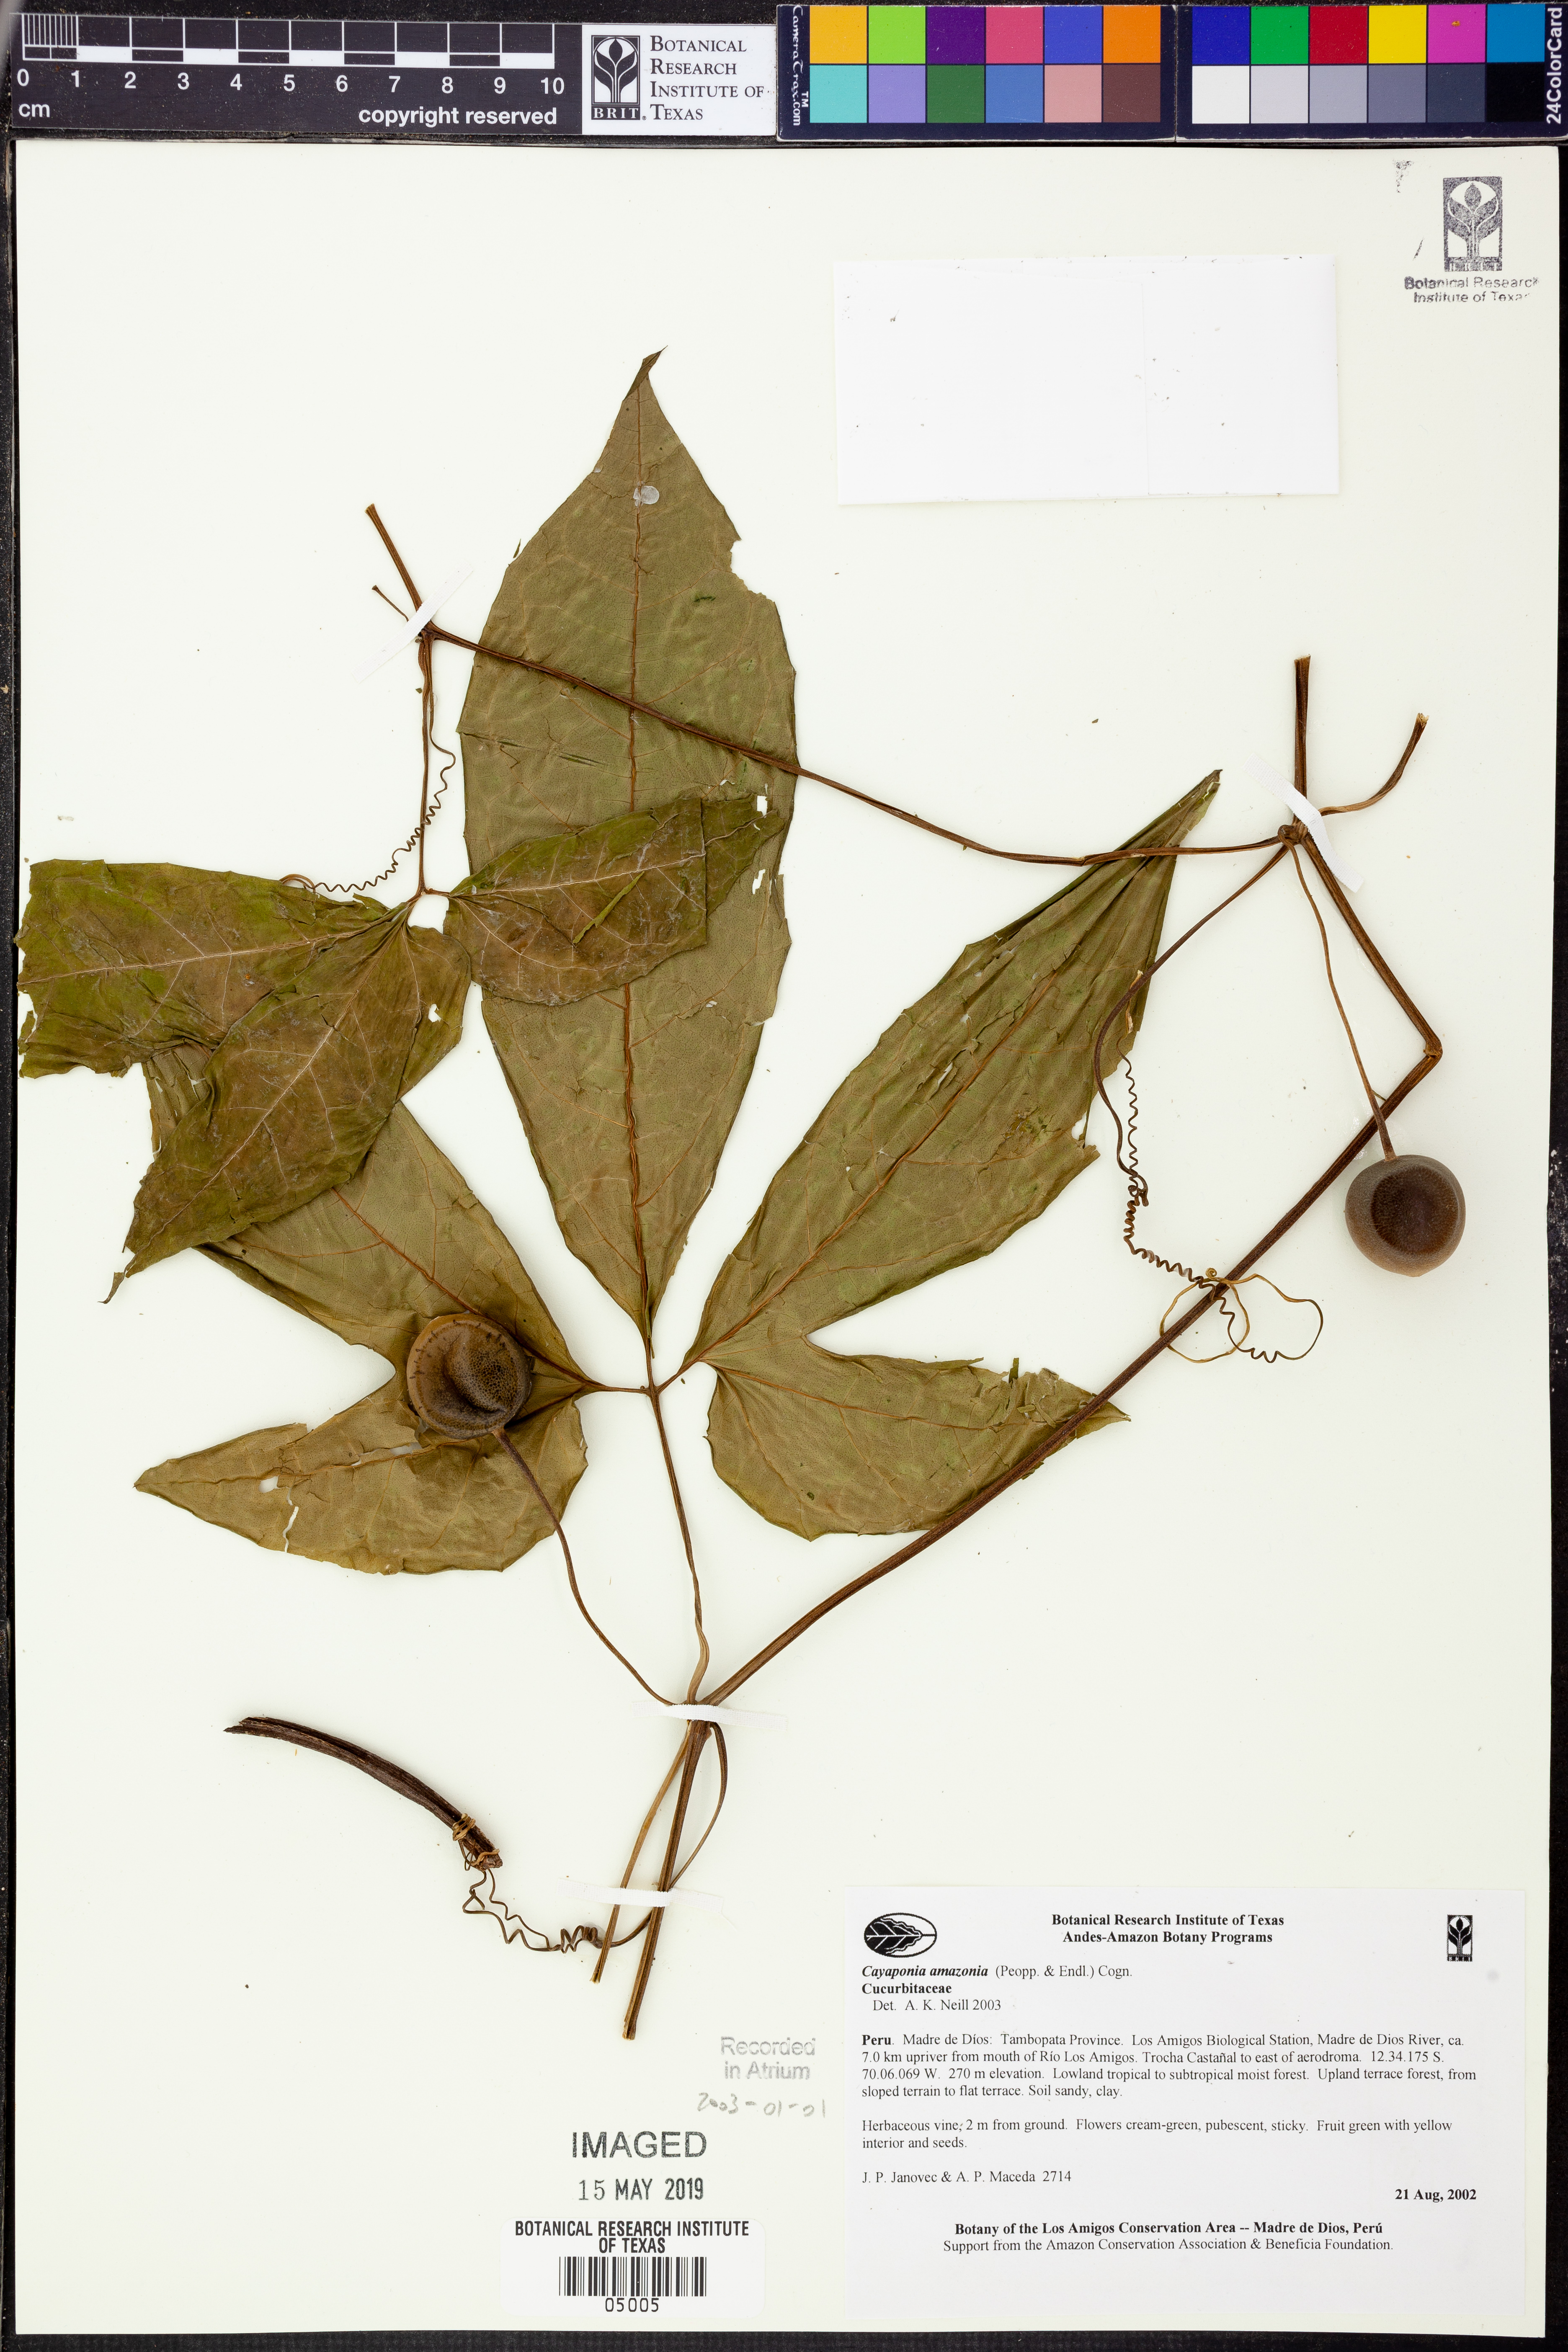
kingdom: Plantae
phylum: Tracheophyta
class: Magnoliopsida
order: Cucurbitales
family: Cucurbitaceae
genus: Cayaponia
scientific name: Cayaponia
